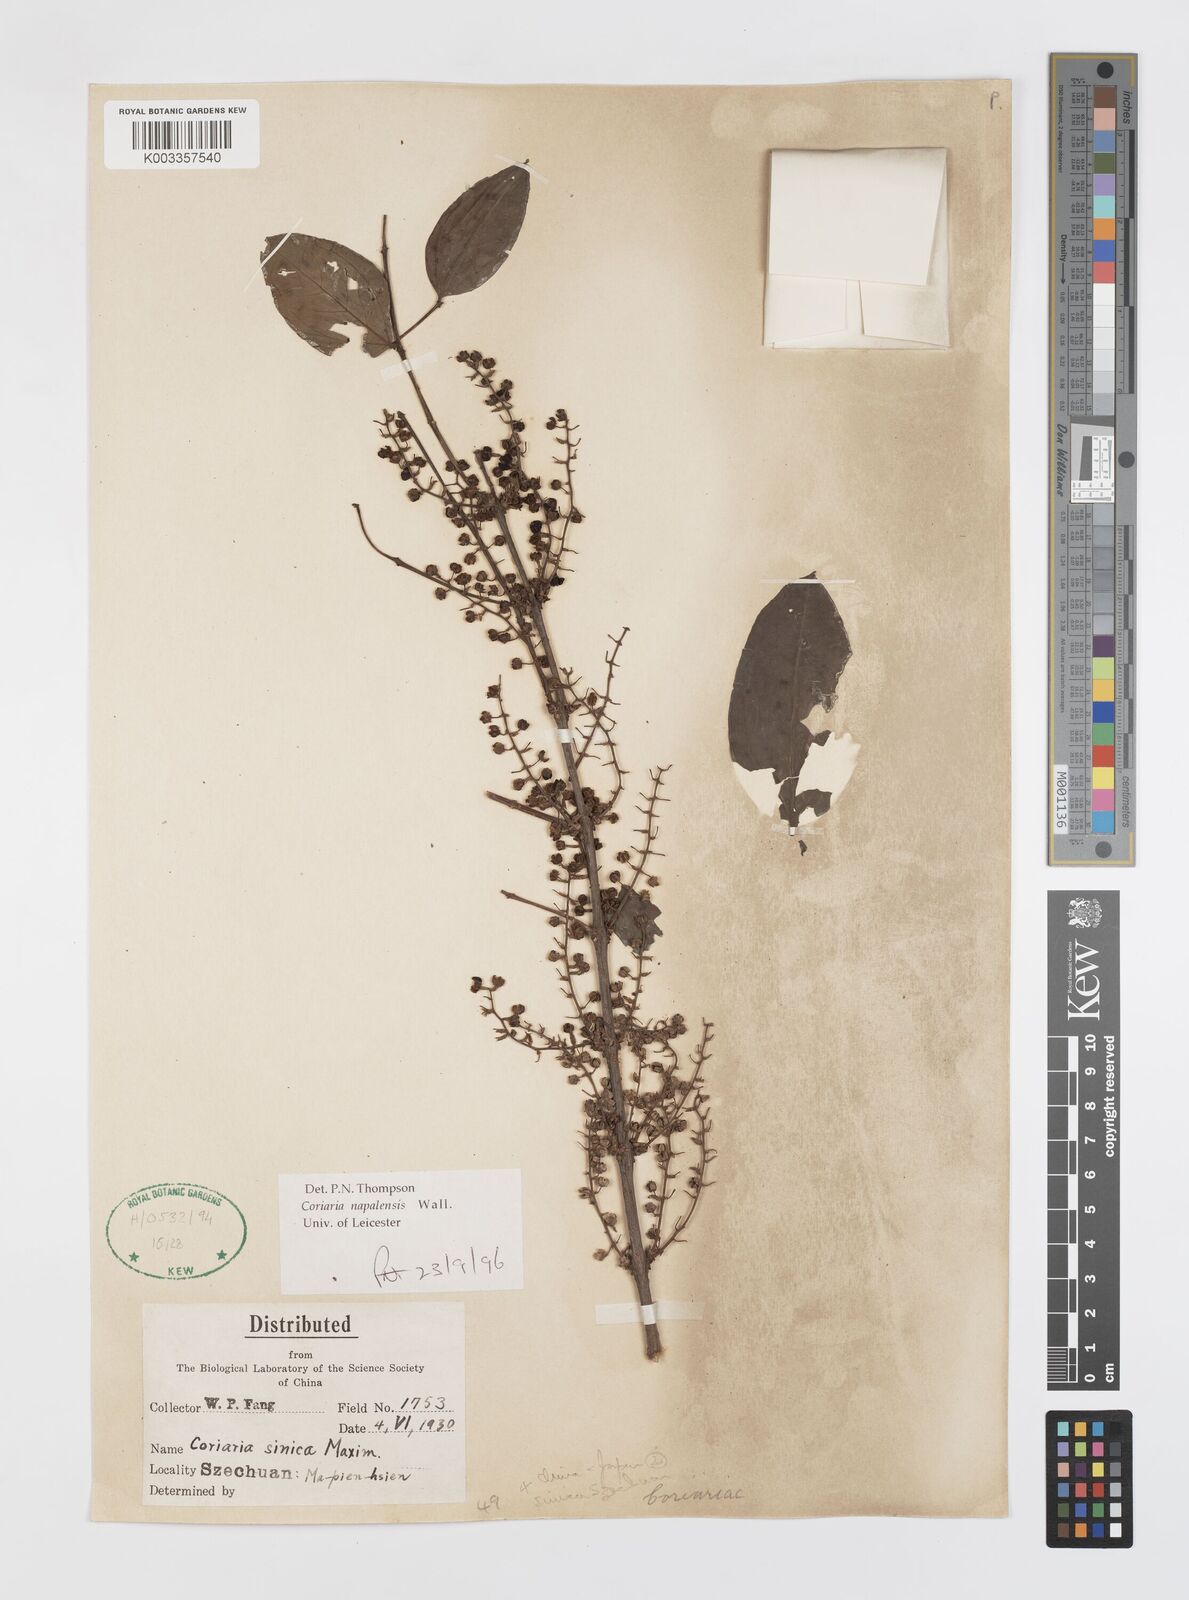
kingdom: Plantae
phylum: Tracheophyta
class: Magnoliopsida
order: Cucurbitales
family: Coriariaceae
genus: Coriaria
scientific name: Coriaria napalensis
